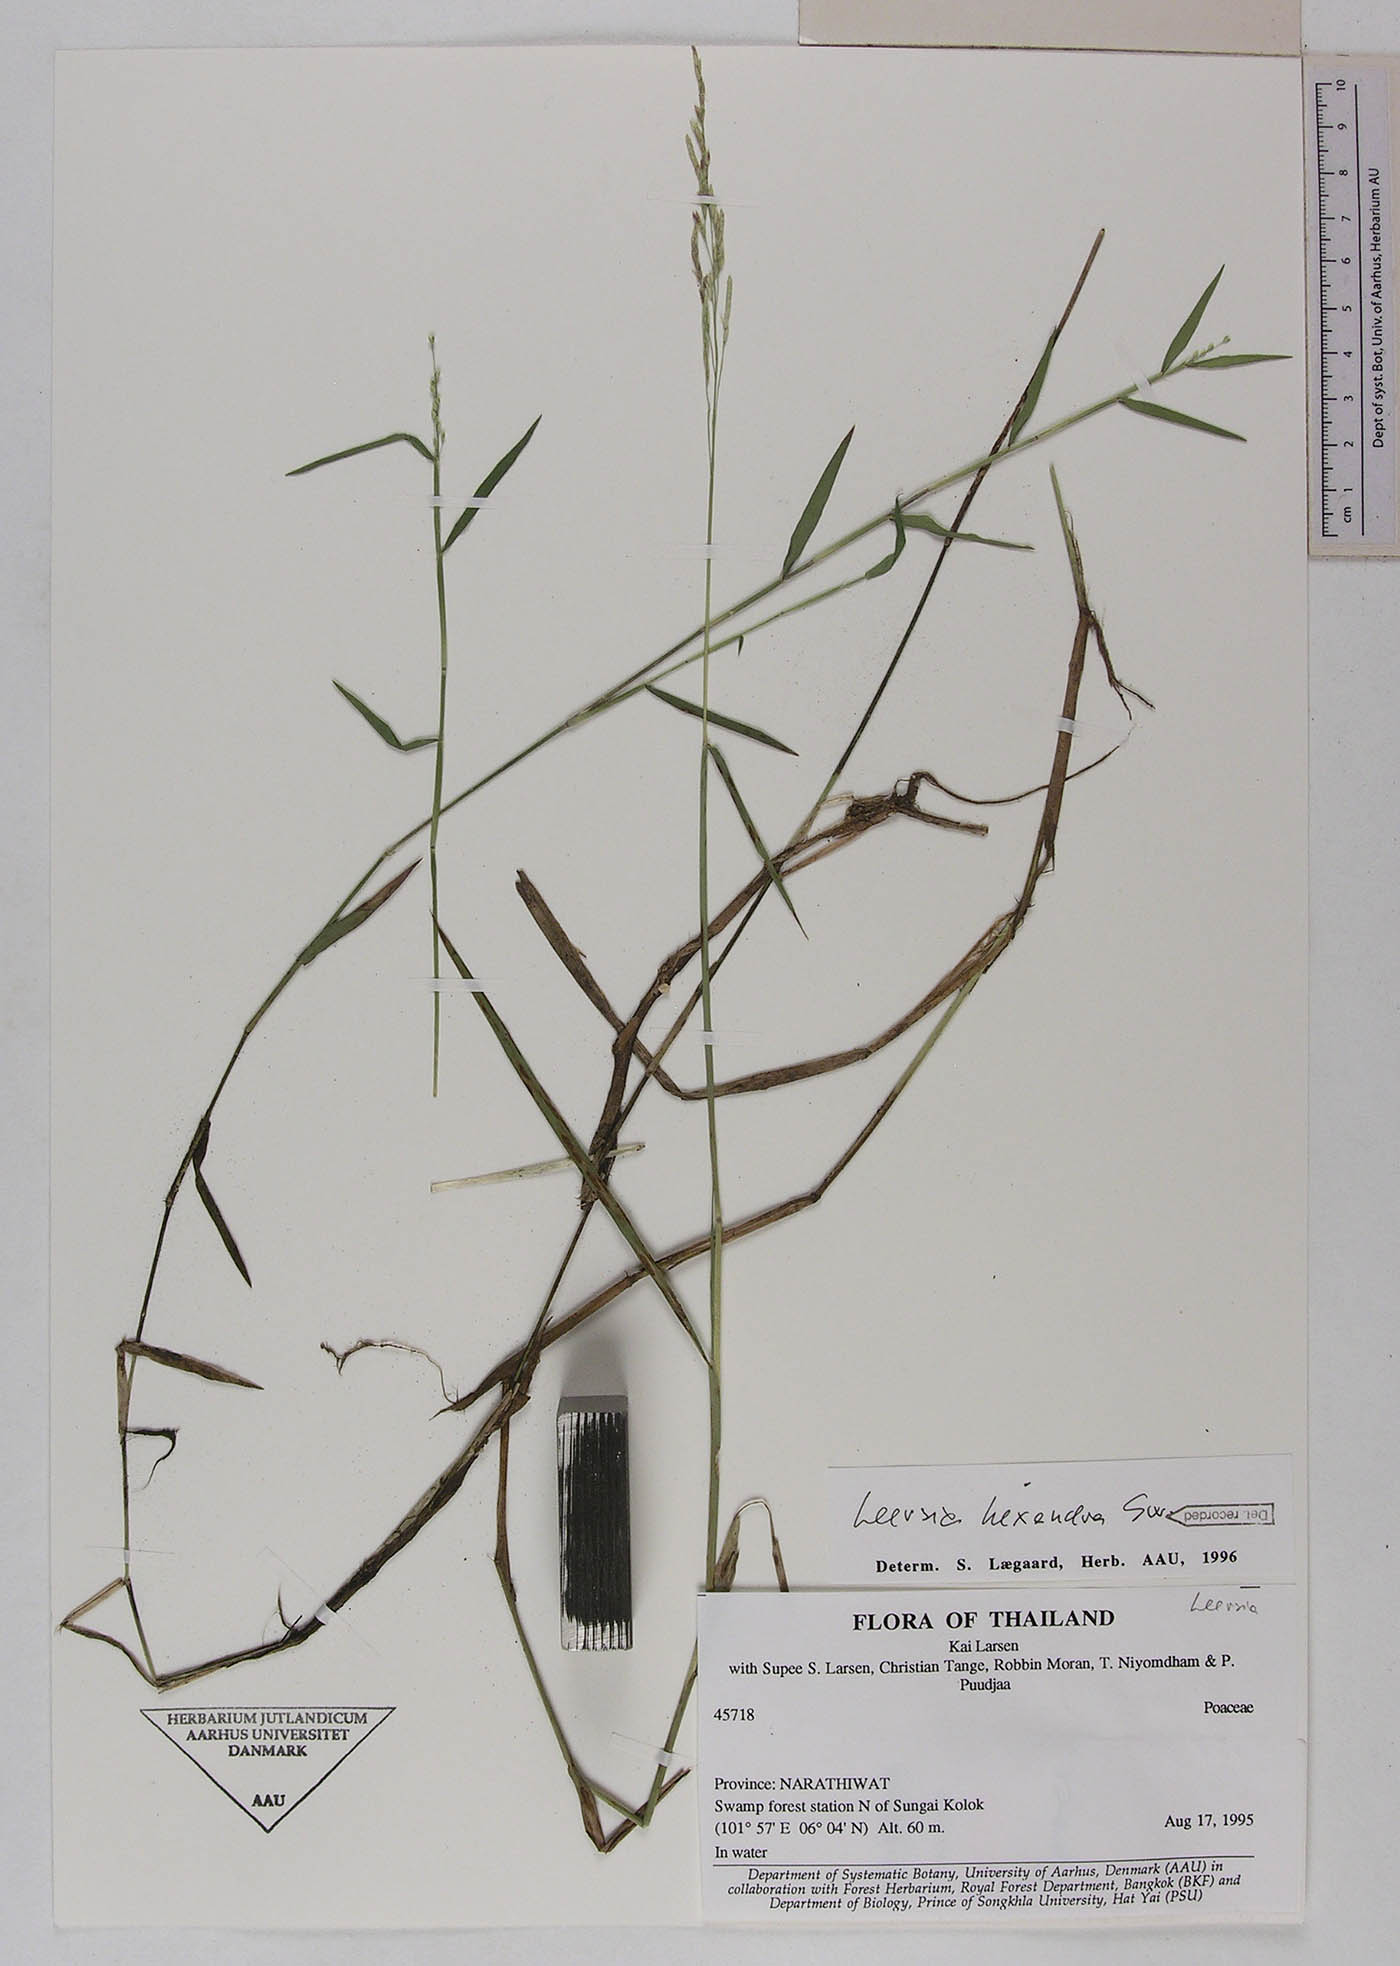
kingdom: Plantae
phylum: Tracheophyta
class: Liliopsida
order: Poales
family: Poaceae
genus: Leersia
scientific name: Leersia hexandra
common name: Southern cut grass
